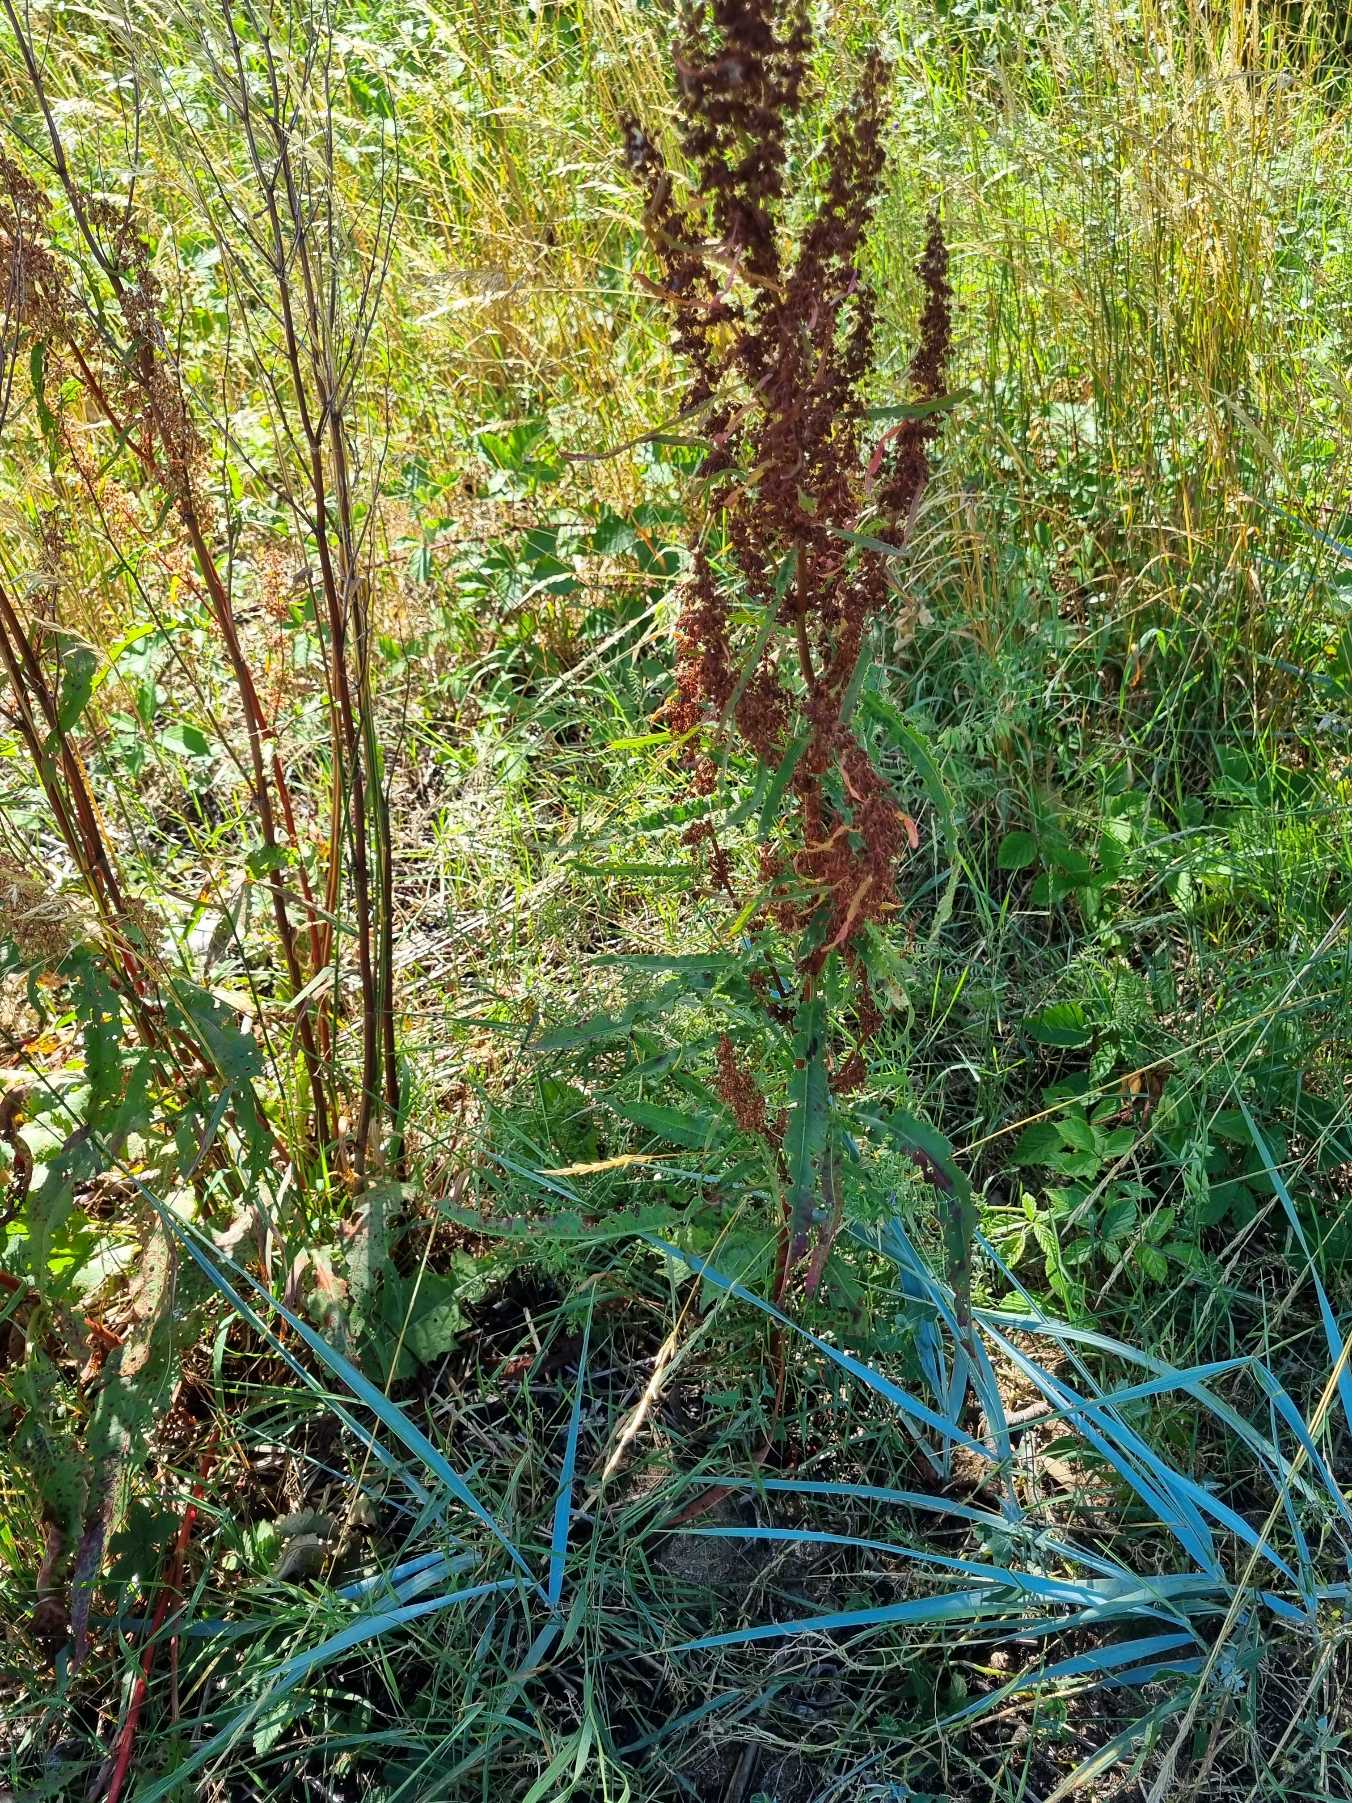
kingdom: Plantae
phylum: Tracheophyta
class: Magnoliopsida
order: Caryophyllales
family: Polygonaceae
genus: Rumex
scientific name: Rumex crispus
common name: Kruset skræppe
